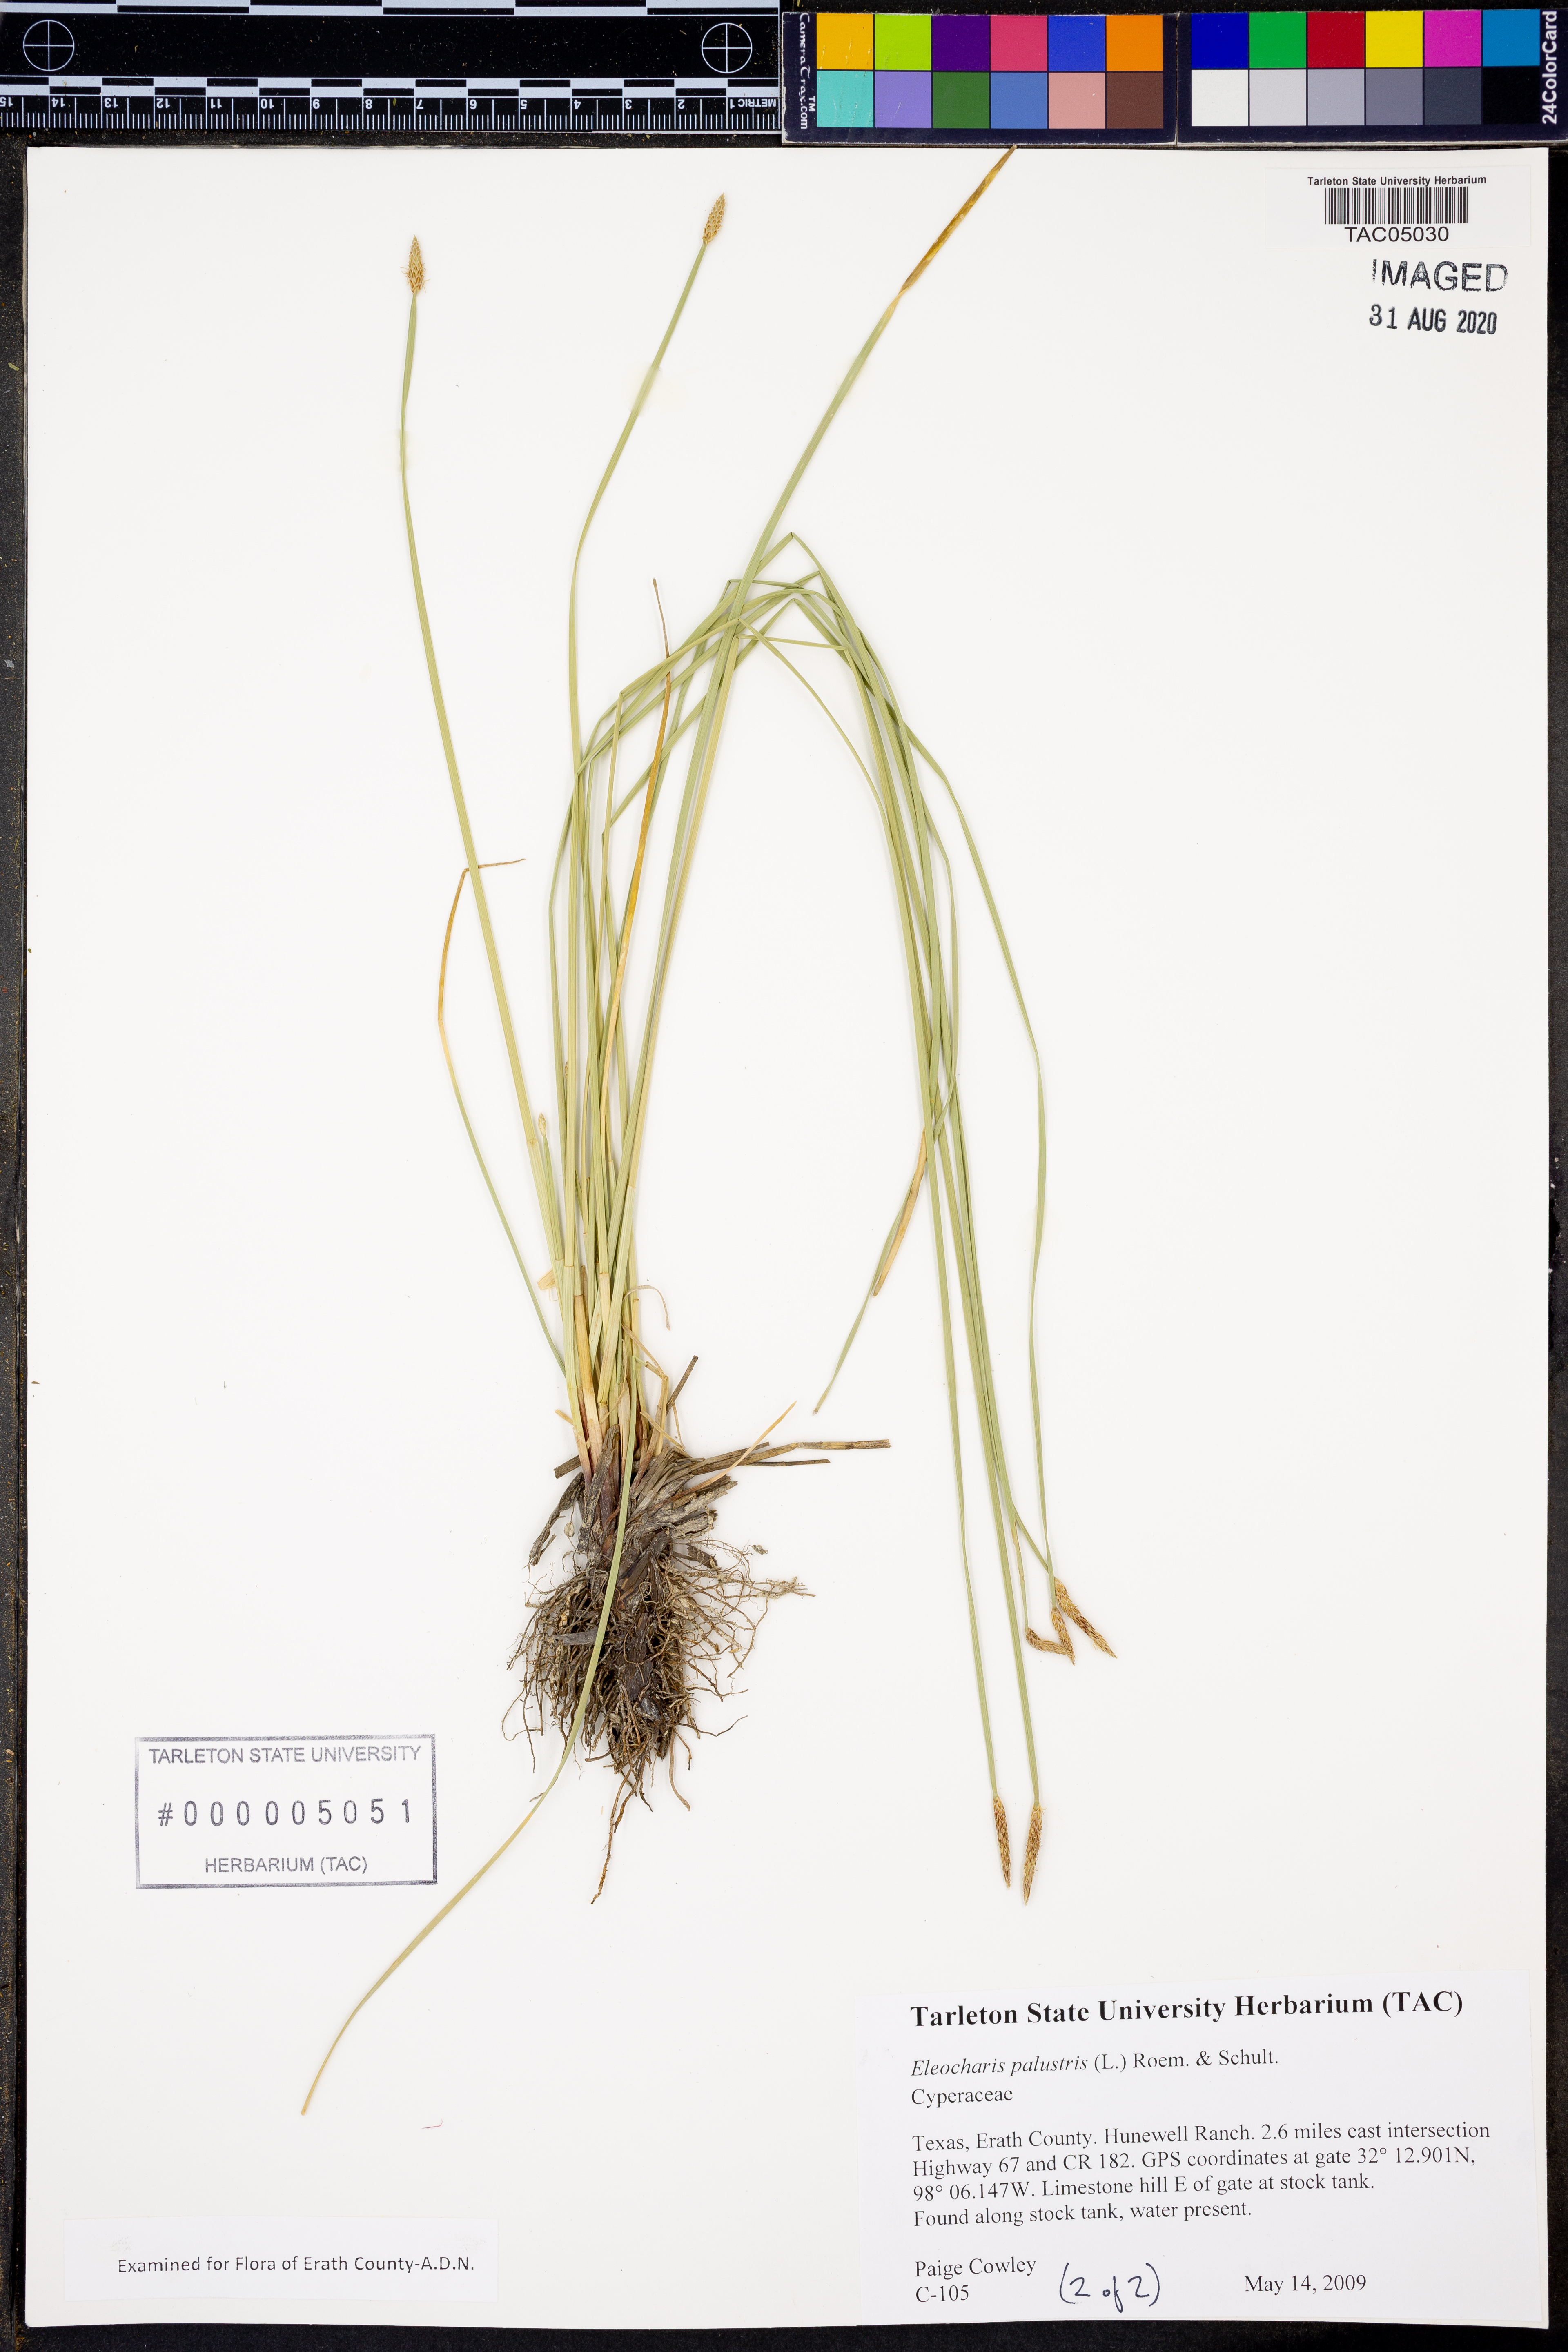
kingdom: Plantae
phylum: Tracheophyta
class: Liliopsida
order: Poales
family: Cyperaceae
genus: Eleocharis
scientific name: Eleocharis palustris
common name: Common spike-rush
